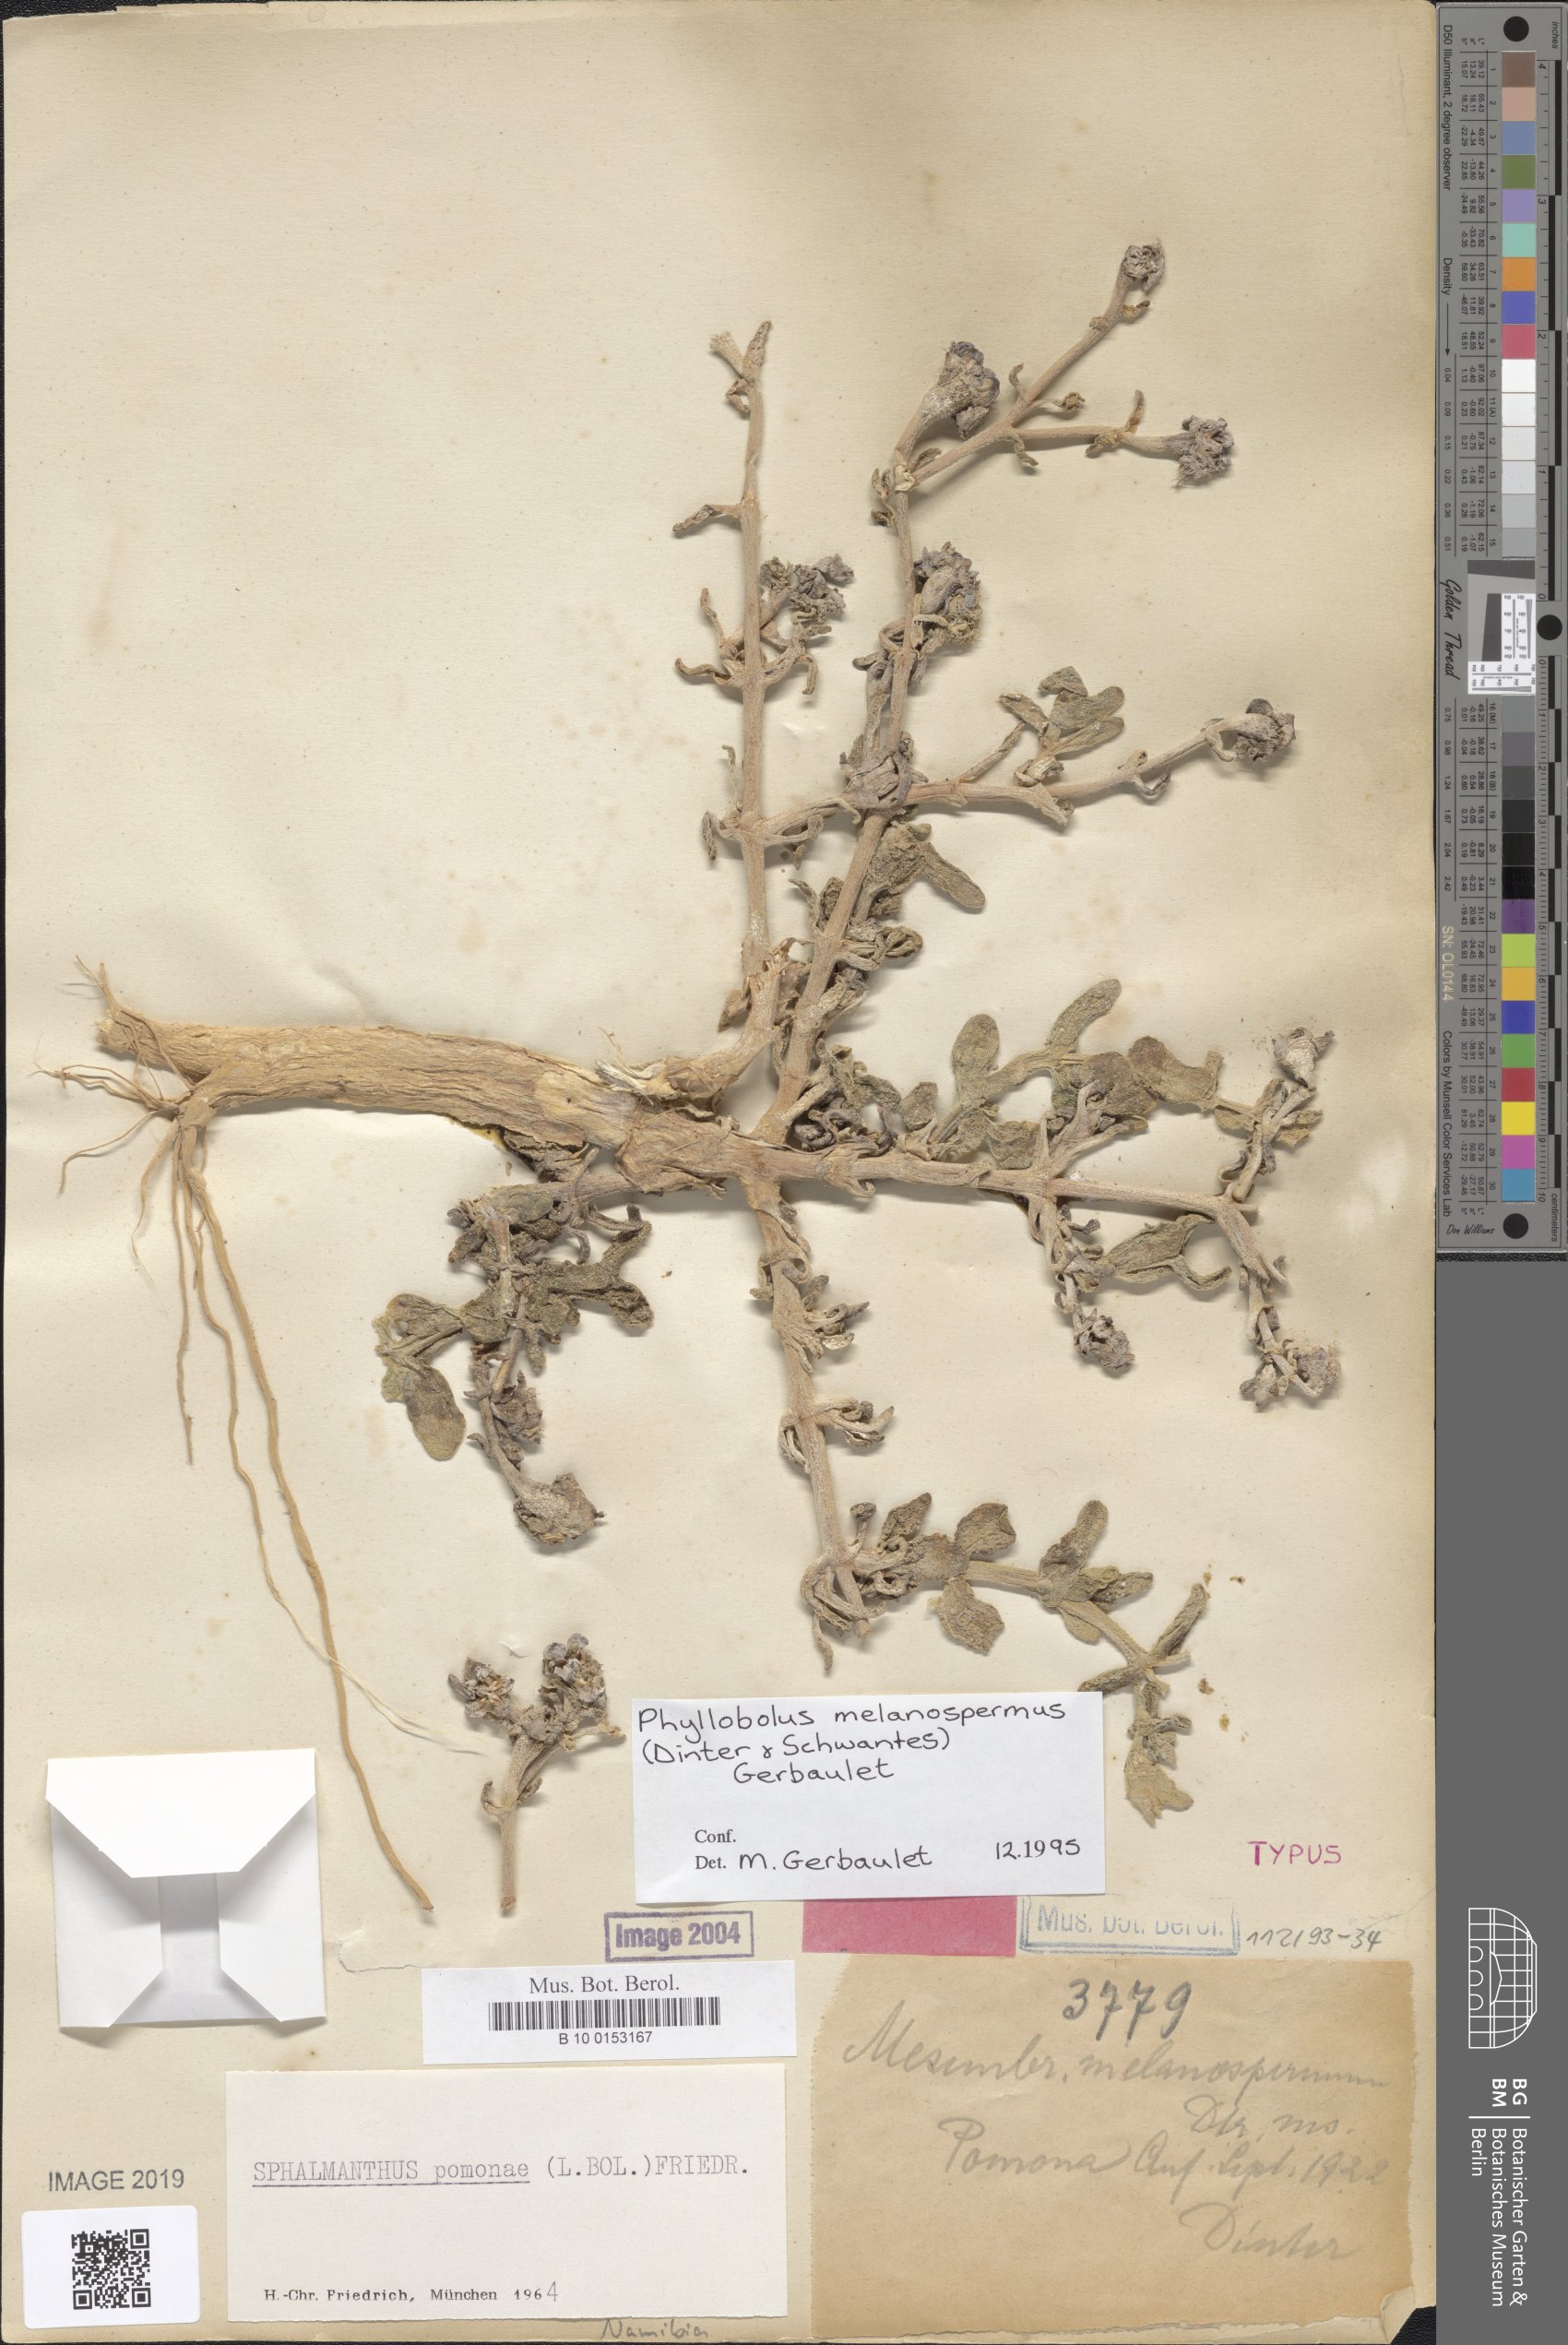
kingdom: Plantae
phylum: Tracheophyta
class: Magnoliopsida
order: Caryophyllales
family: Aizoaceae
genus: Mesembryanthemum
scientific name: Mesembryanthemum
